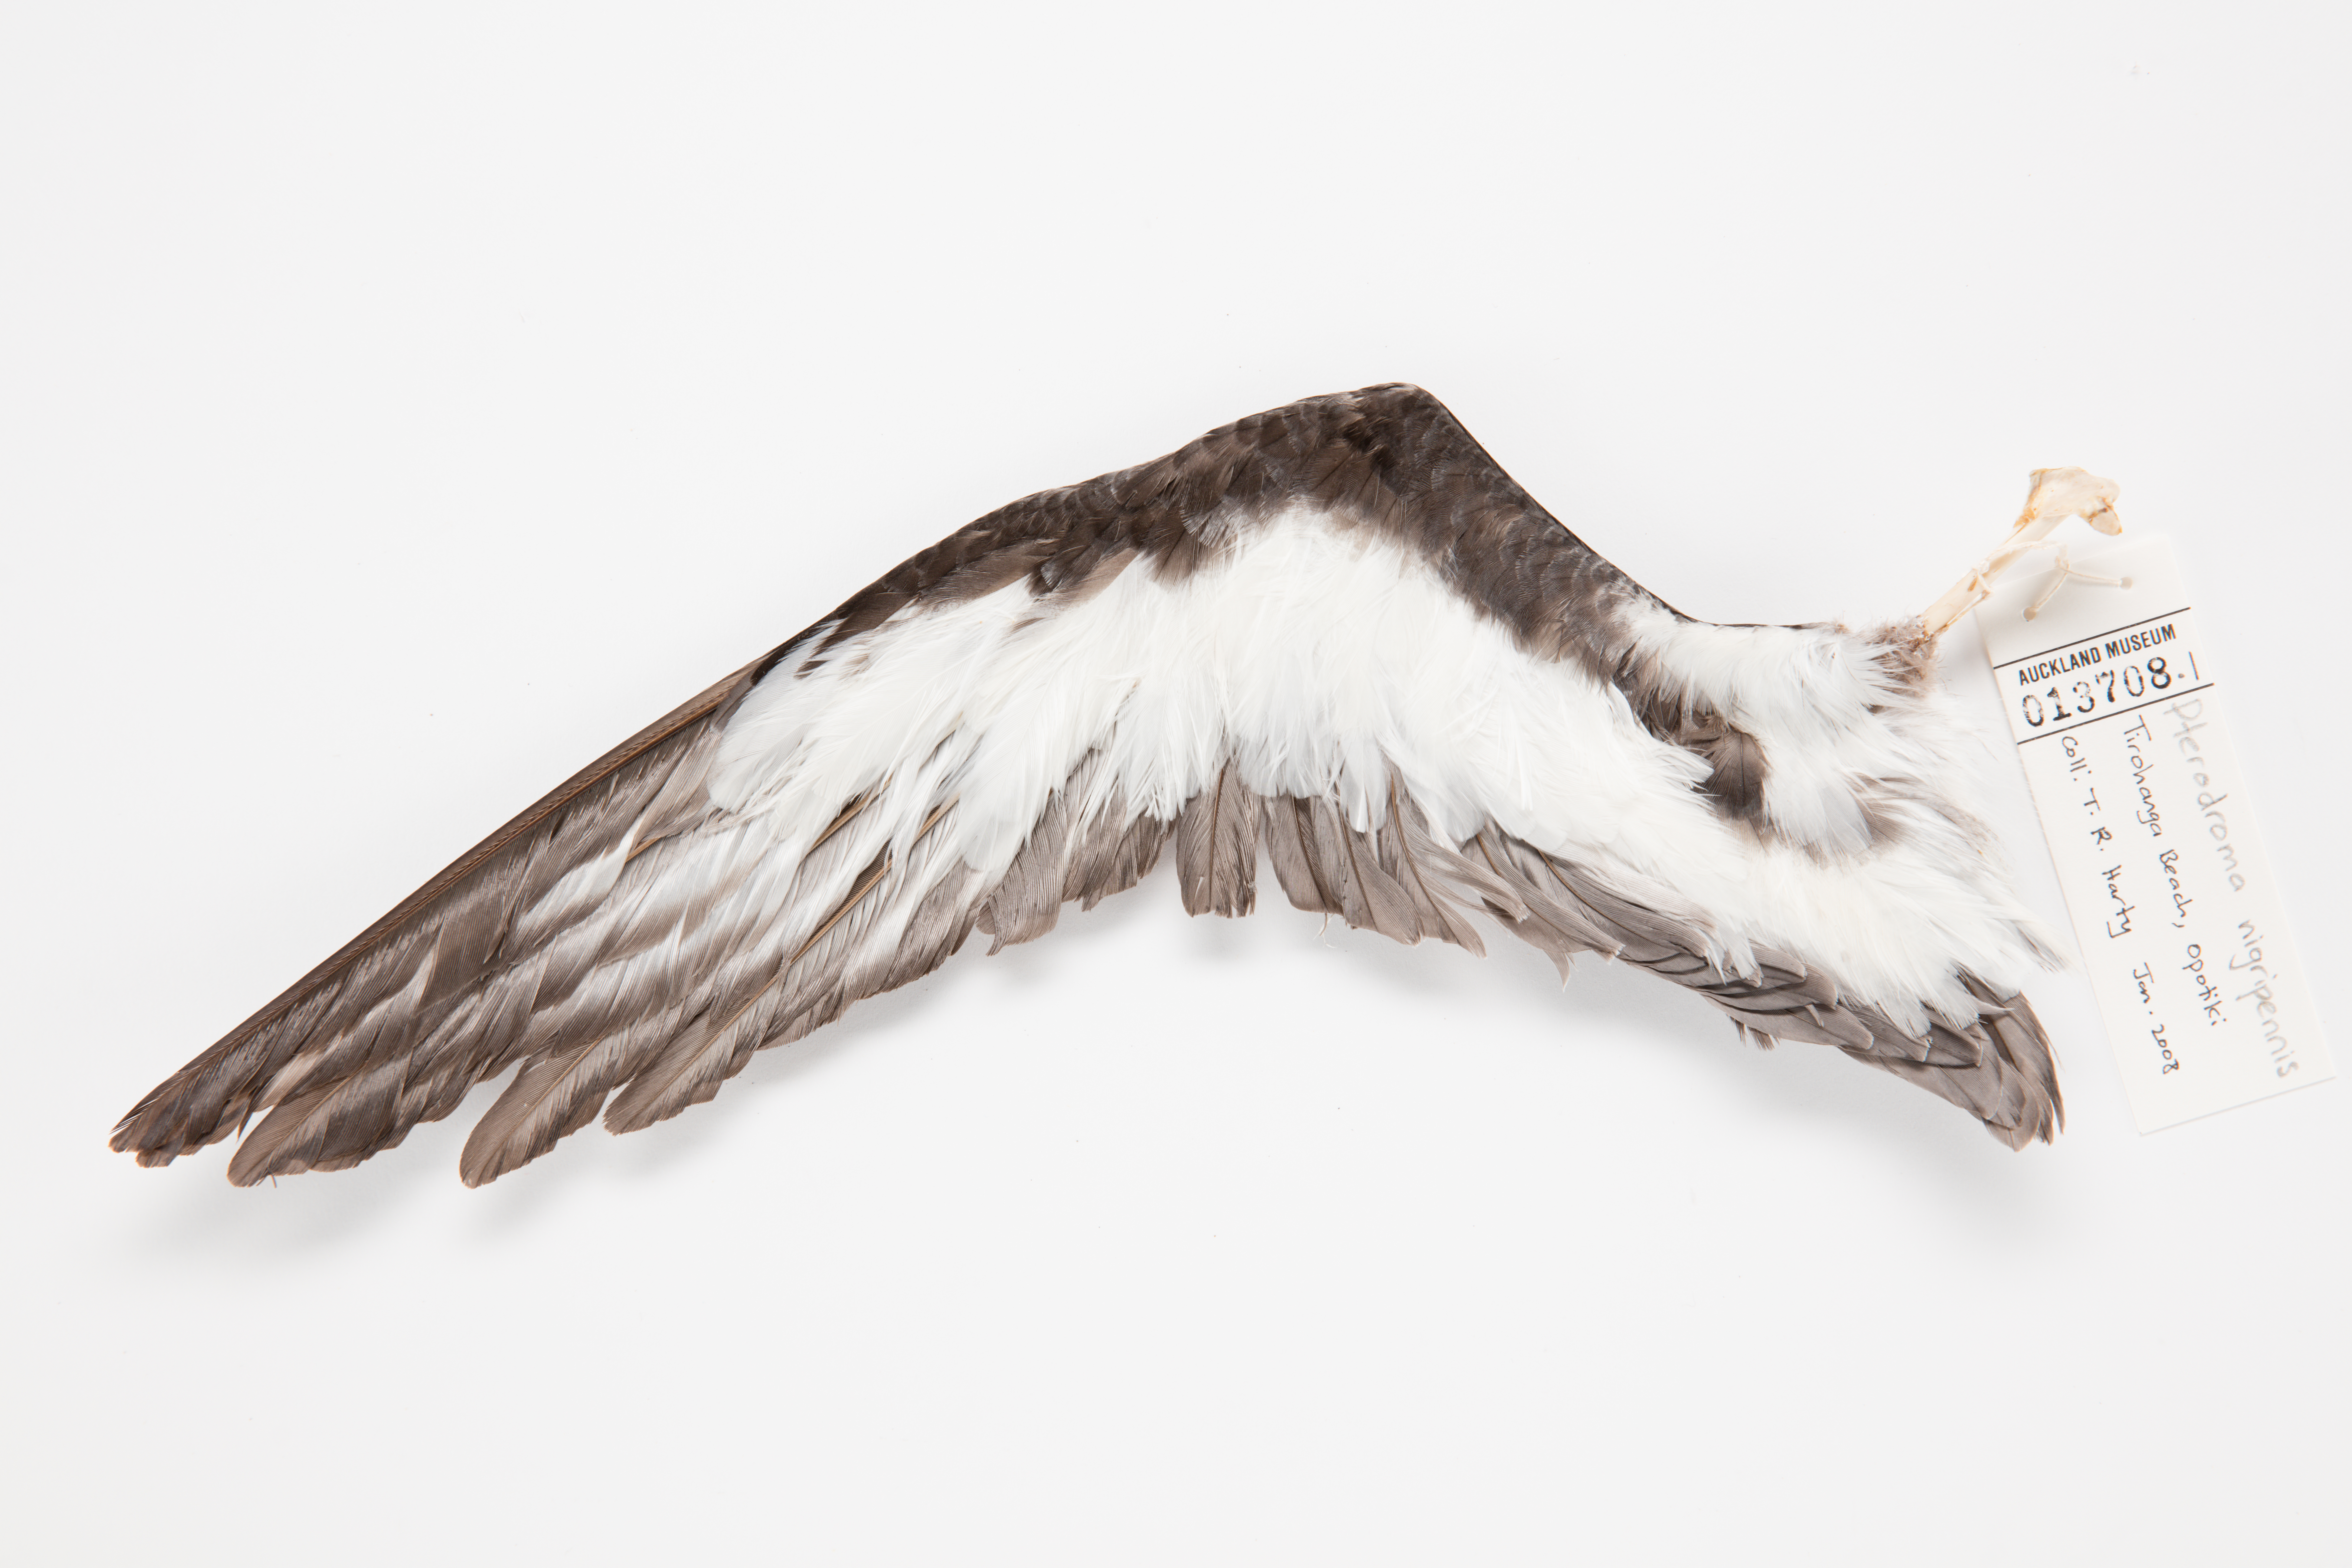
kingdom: Animalia
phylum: Chordata
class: Aves
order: Procellariiformes
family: Procellariidae
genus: Pterodroma
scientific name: Pterodroma nigripennis
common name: Black-winged petrel
